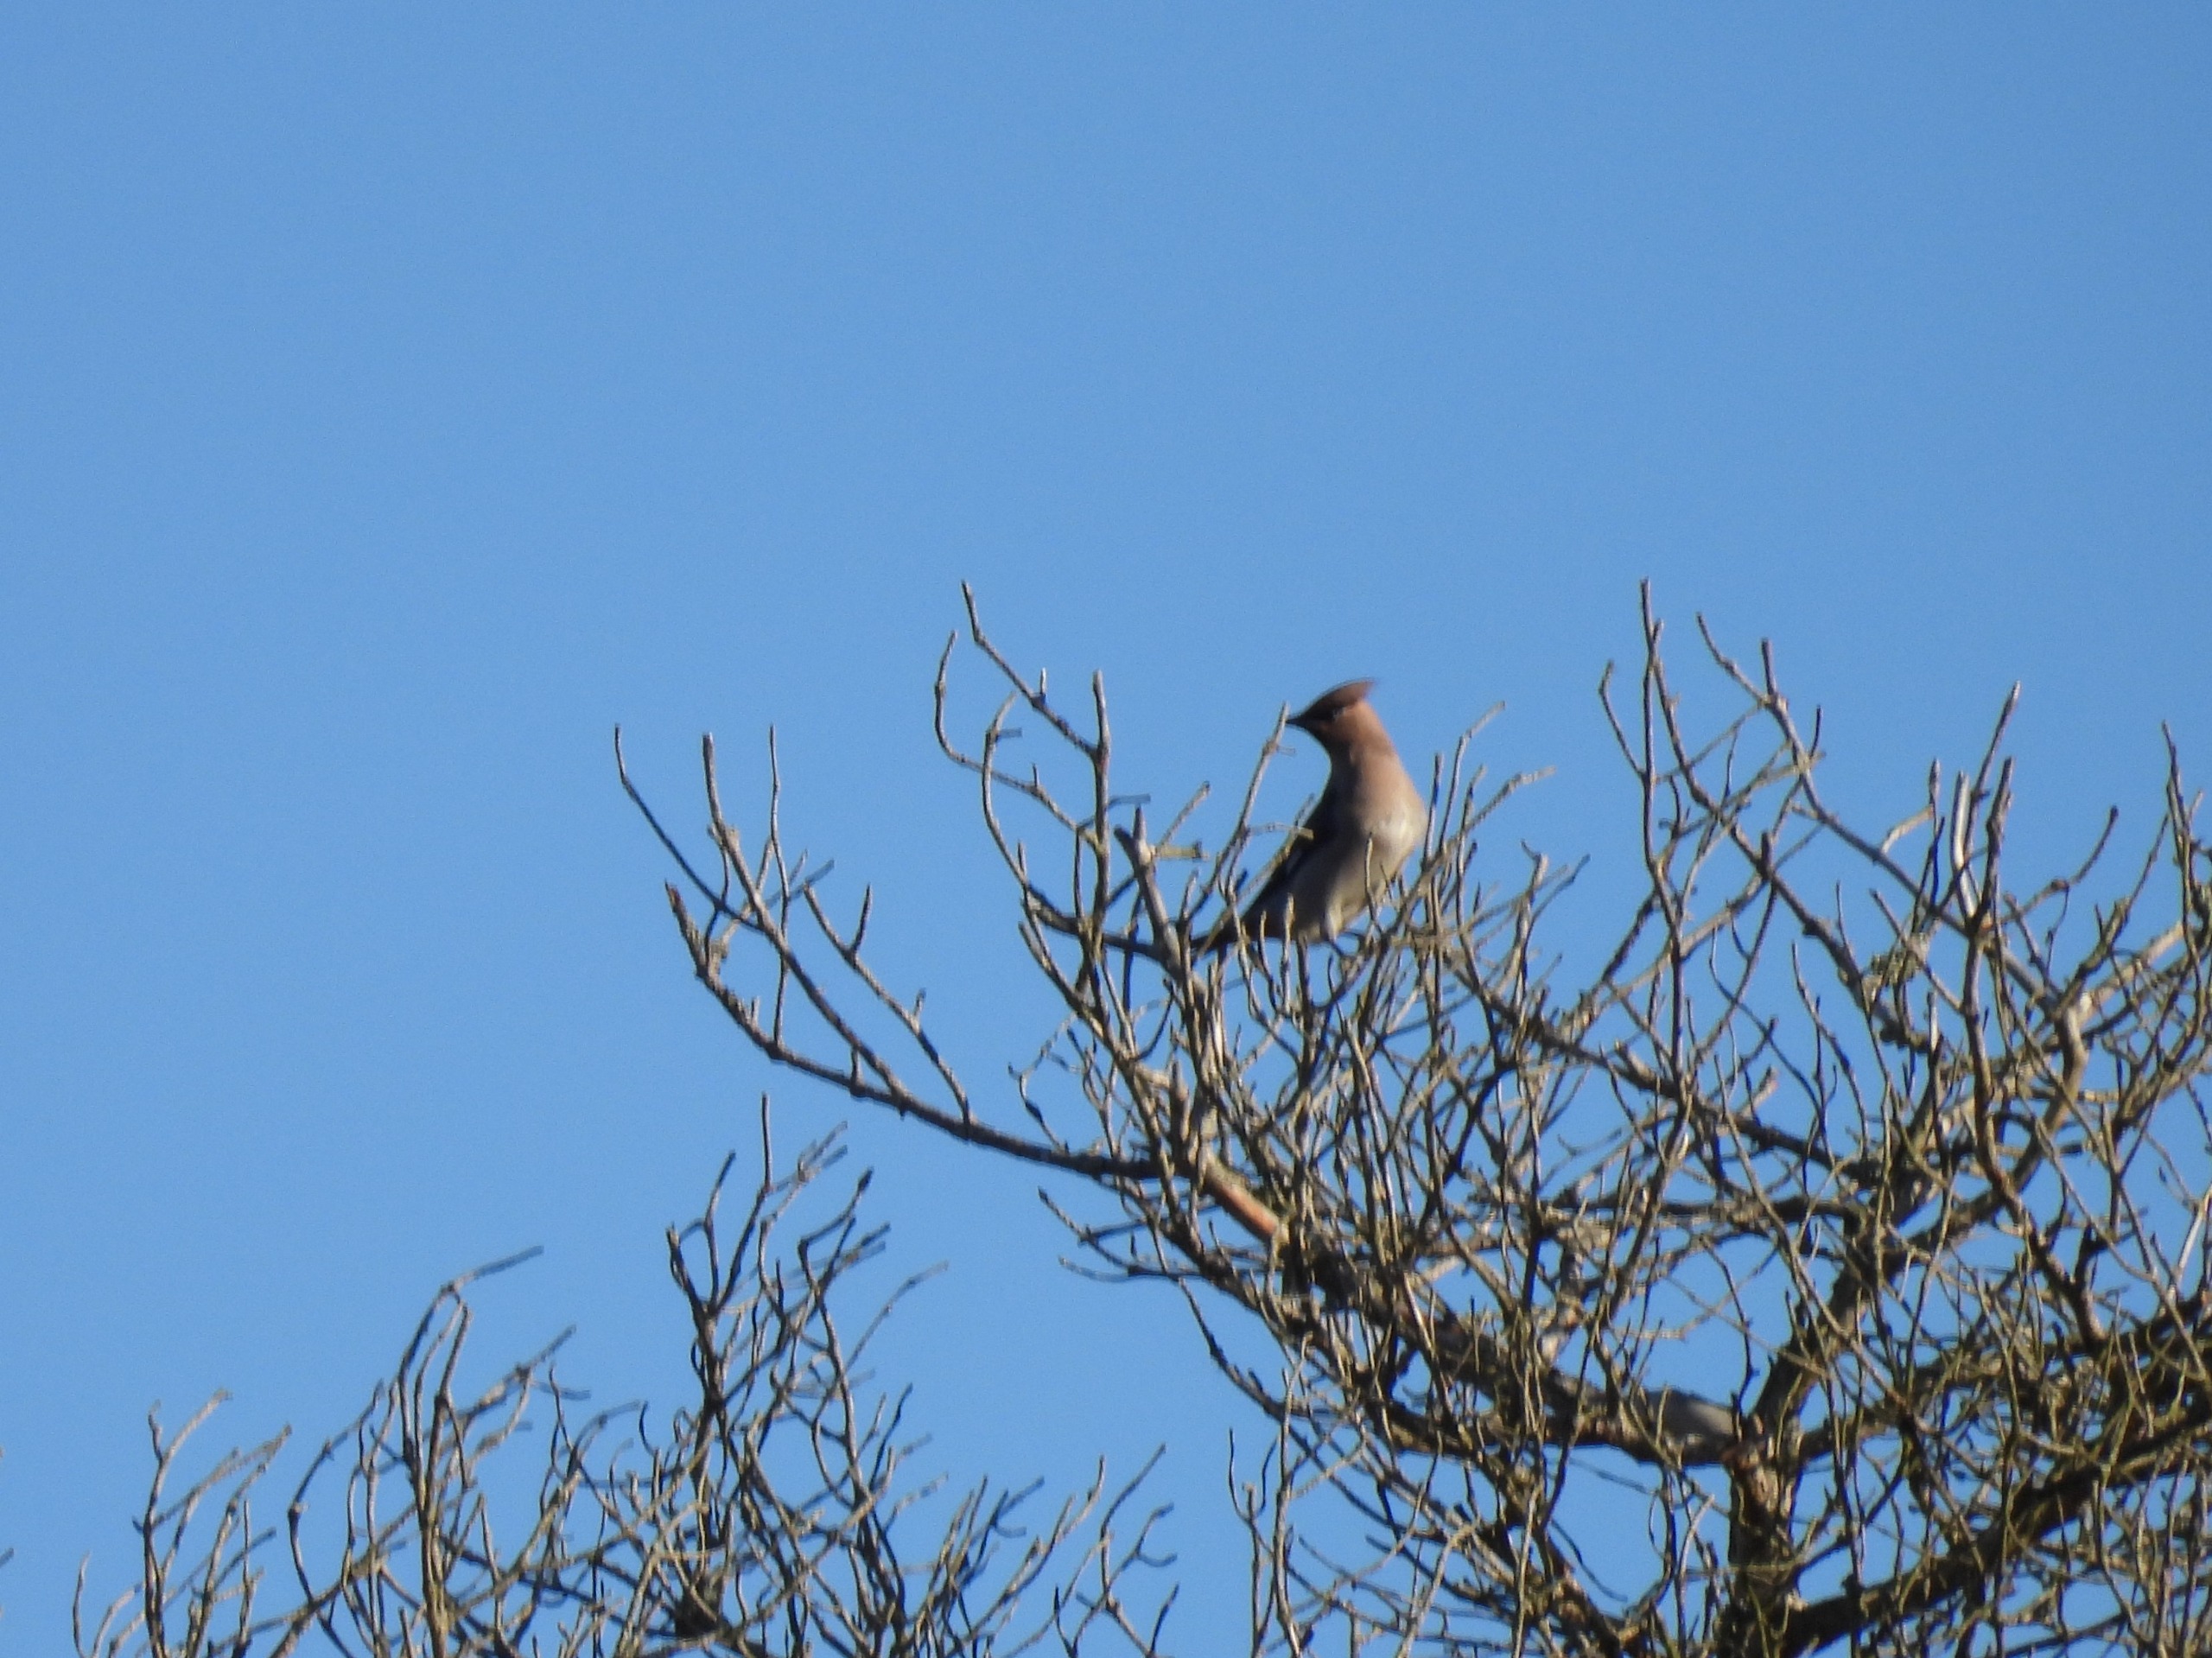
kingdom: Animalia
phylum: Chordata
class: Aves
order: Passeriformes
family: Bombycillidae
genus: Bombycilla
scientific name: Bombycilla garrulus
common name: Silkehale
